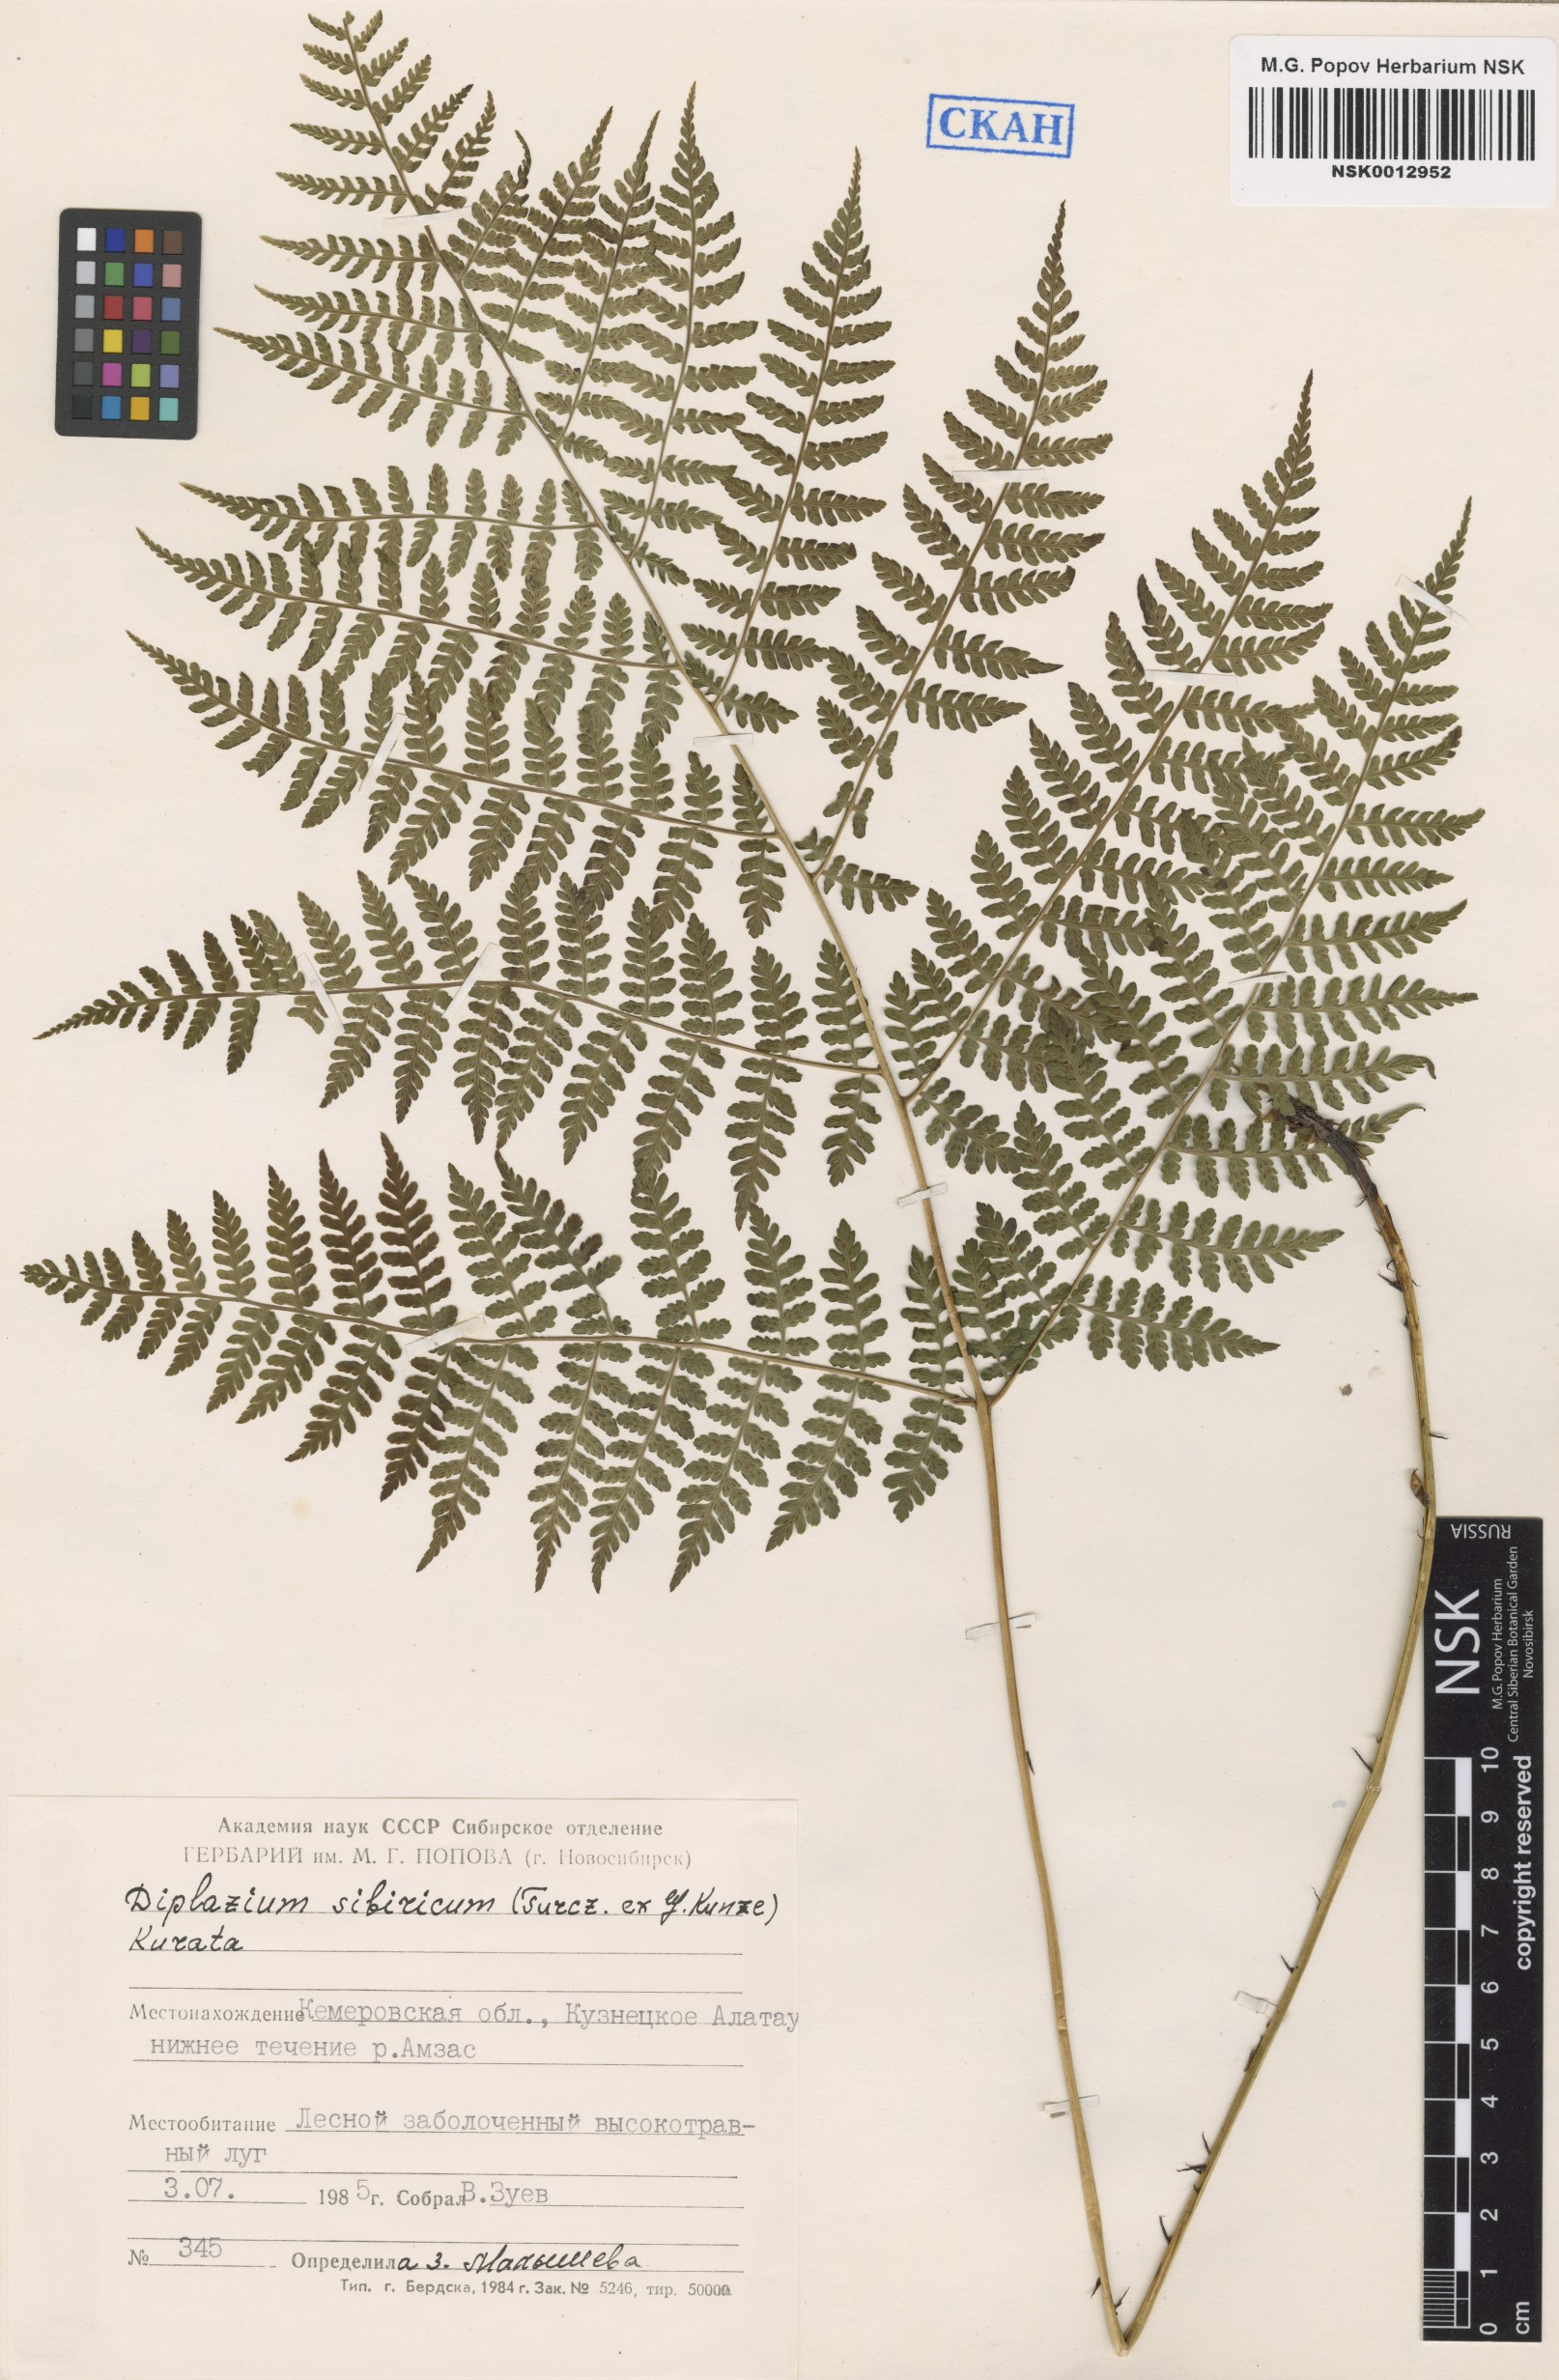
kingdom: Plantae
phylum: Tracheophyta
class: Polypodiopsida
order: Polypodiales
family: Athyriaceae
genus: Diplazium
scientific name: Diplazium sibiricum
